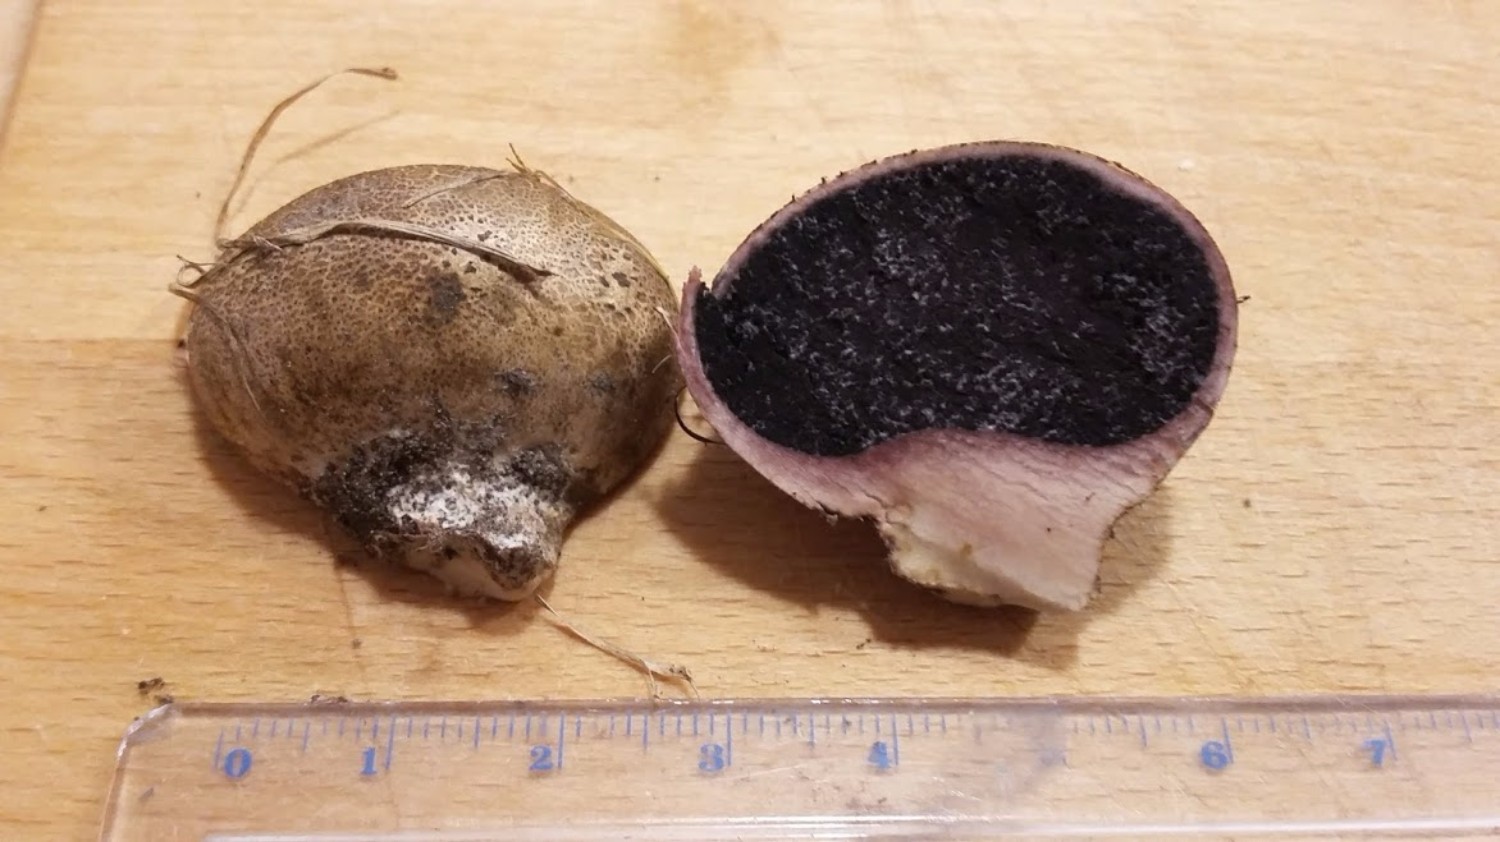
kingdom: Fungi
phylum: Basidiomycota
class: Agaricomycetes
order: Boletales
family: Sclerodermataceae
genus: Scleroderma
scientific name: Scleroderma bovista
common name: bovist-bruskbold
